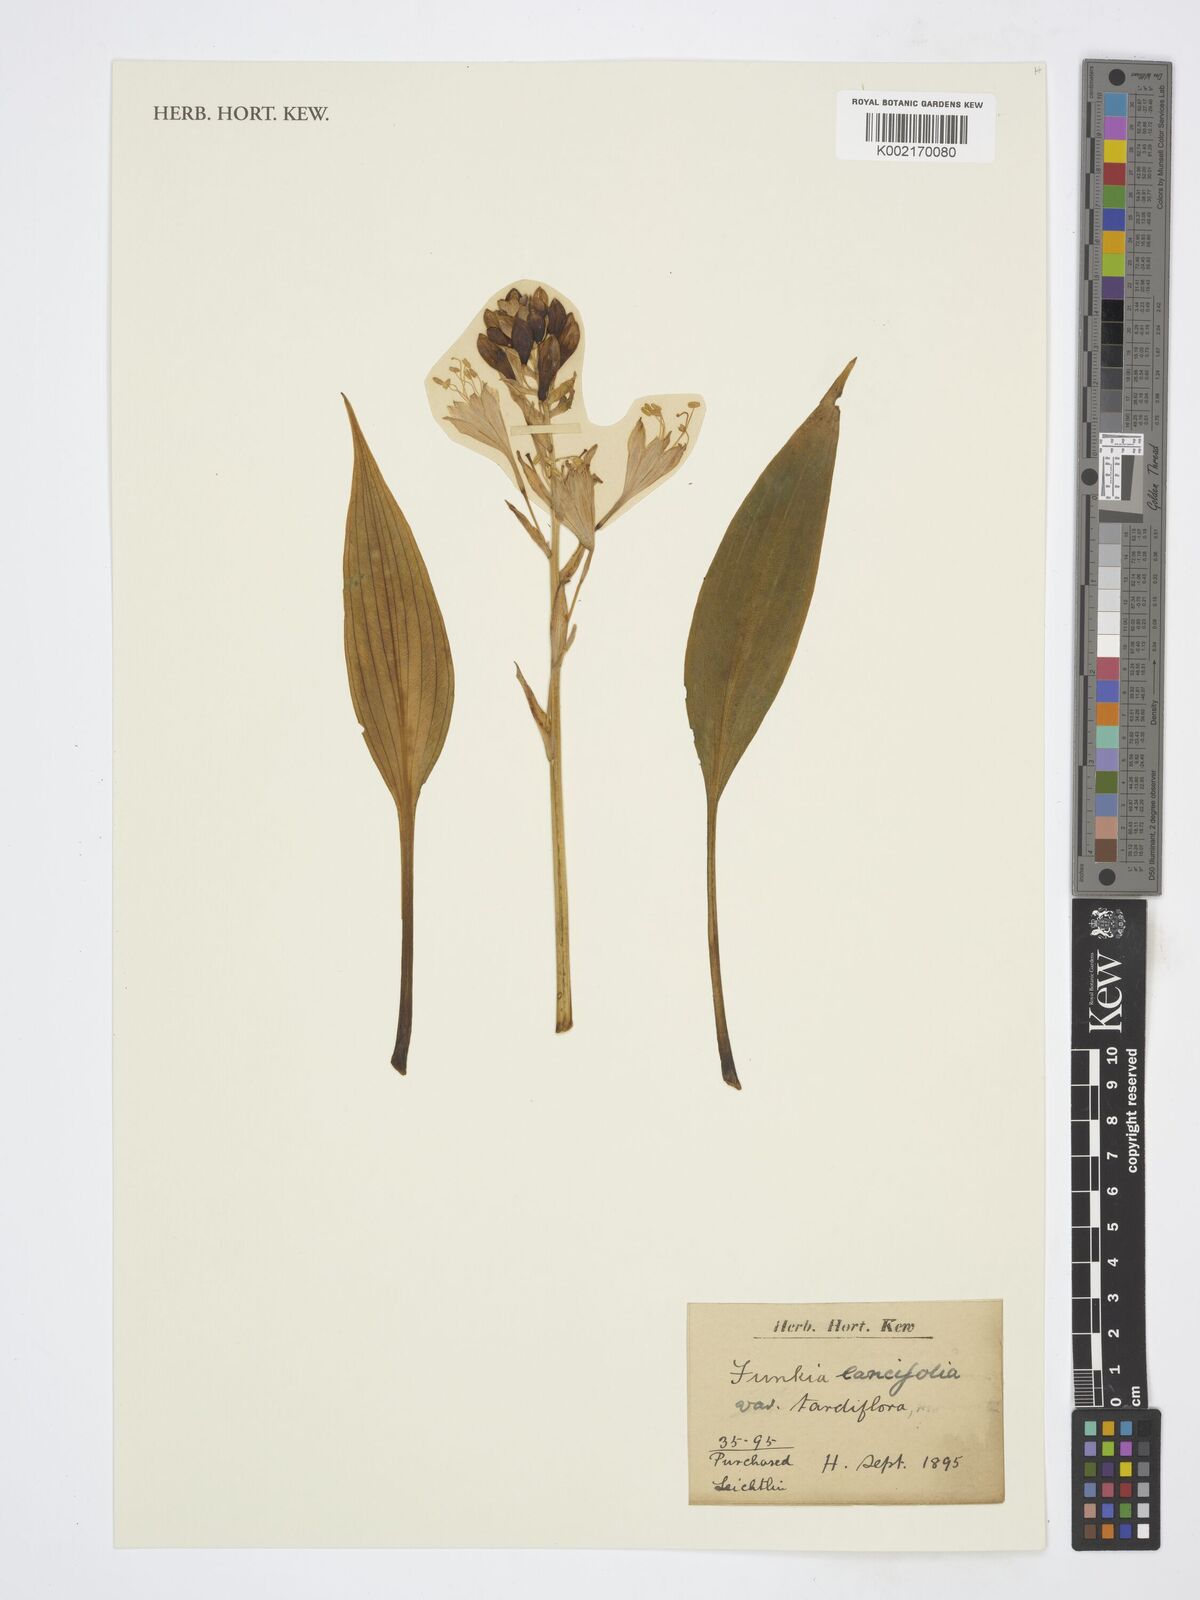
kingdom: Plantae
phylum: Tracheophyta
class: Magnoliopsida
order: Ericales
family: Primulaceae
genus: Hosta
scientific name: Hosta
